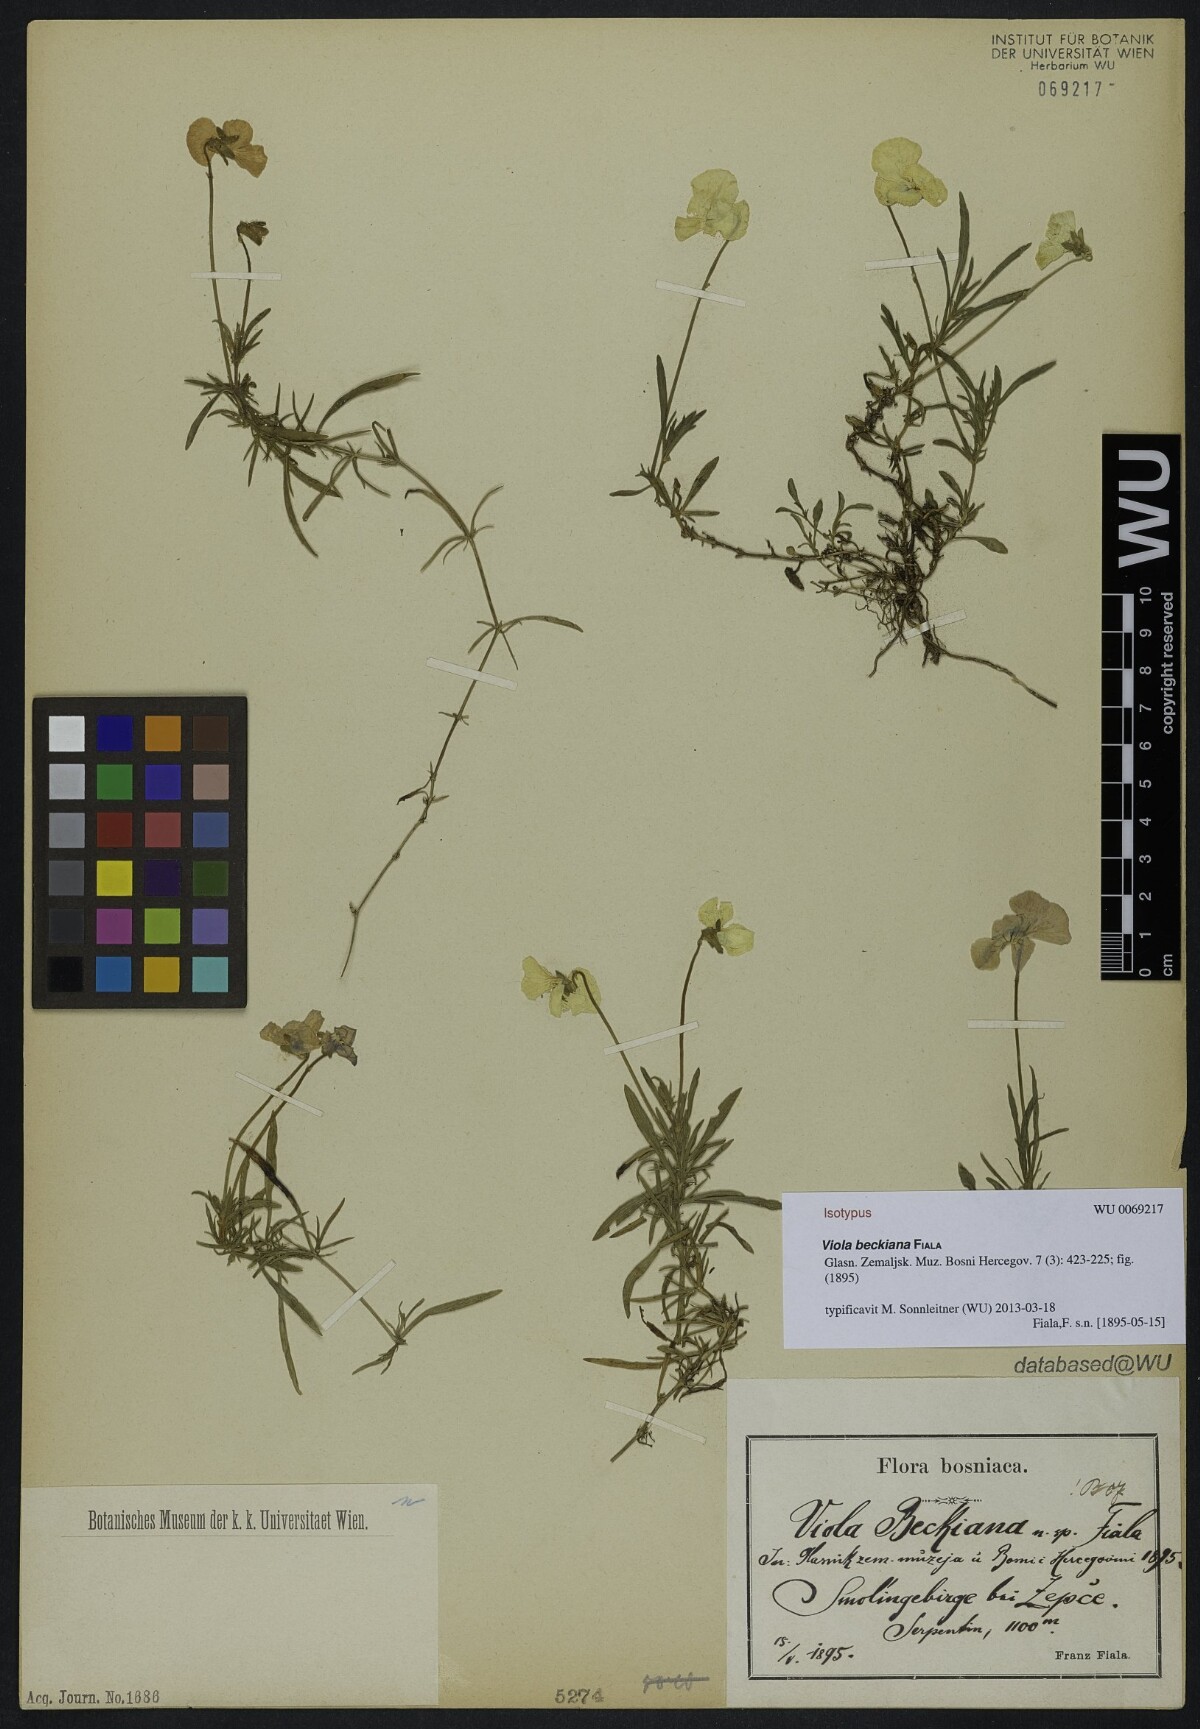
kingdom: Plantae
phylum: Tracheophyta
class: Magnoliopsida
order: Malpighiales
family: Violaceae
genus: Viola
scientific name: Viola beckiana
